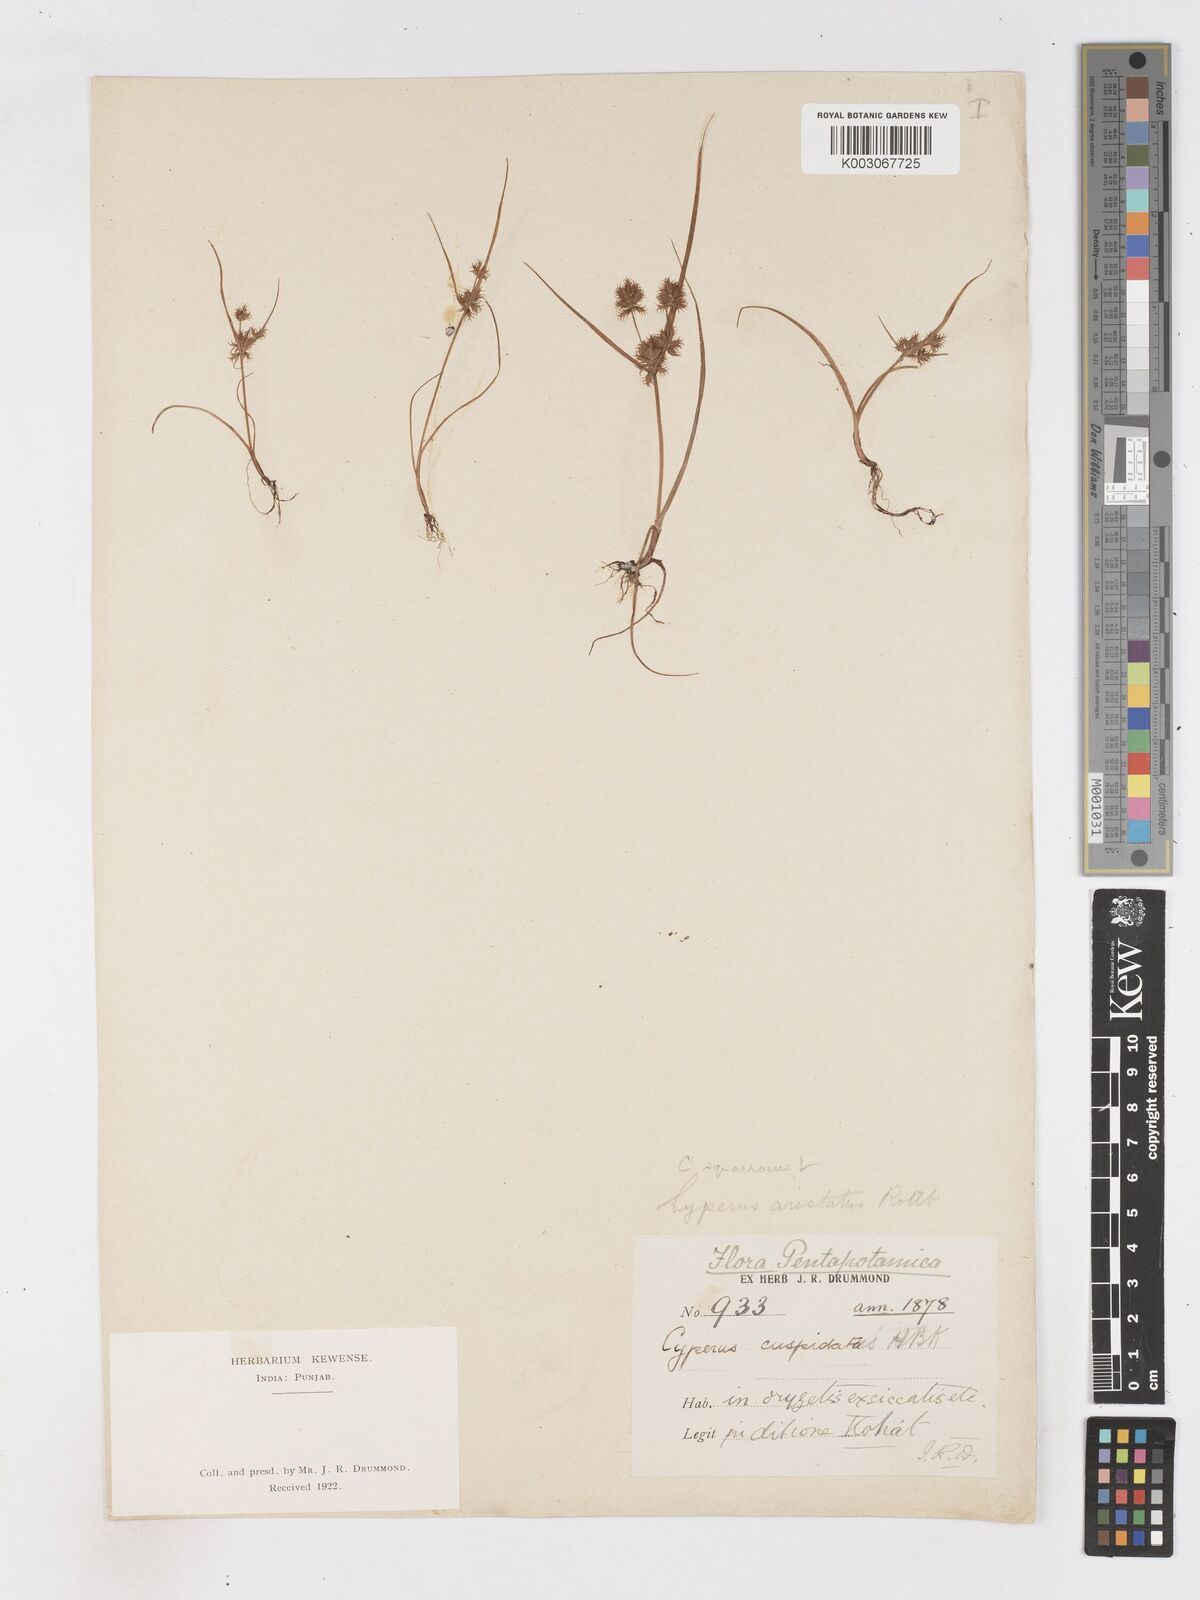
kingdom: Plantae
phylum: Tracheophyta
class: Liliopsida
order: Poales
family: Cyperaceae
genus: Cyperus
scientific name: Cyperus squarrosus
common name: Awned cyperus
